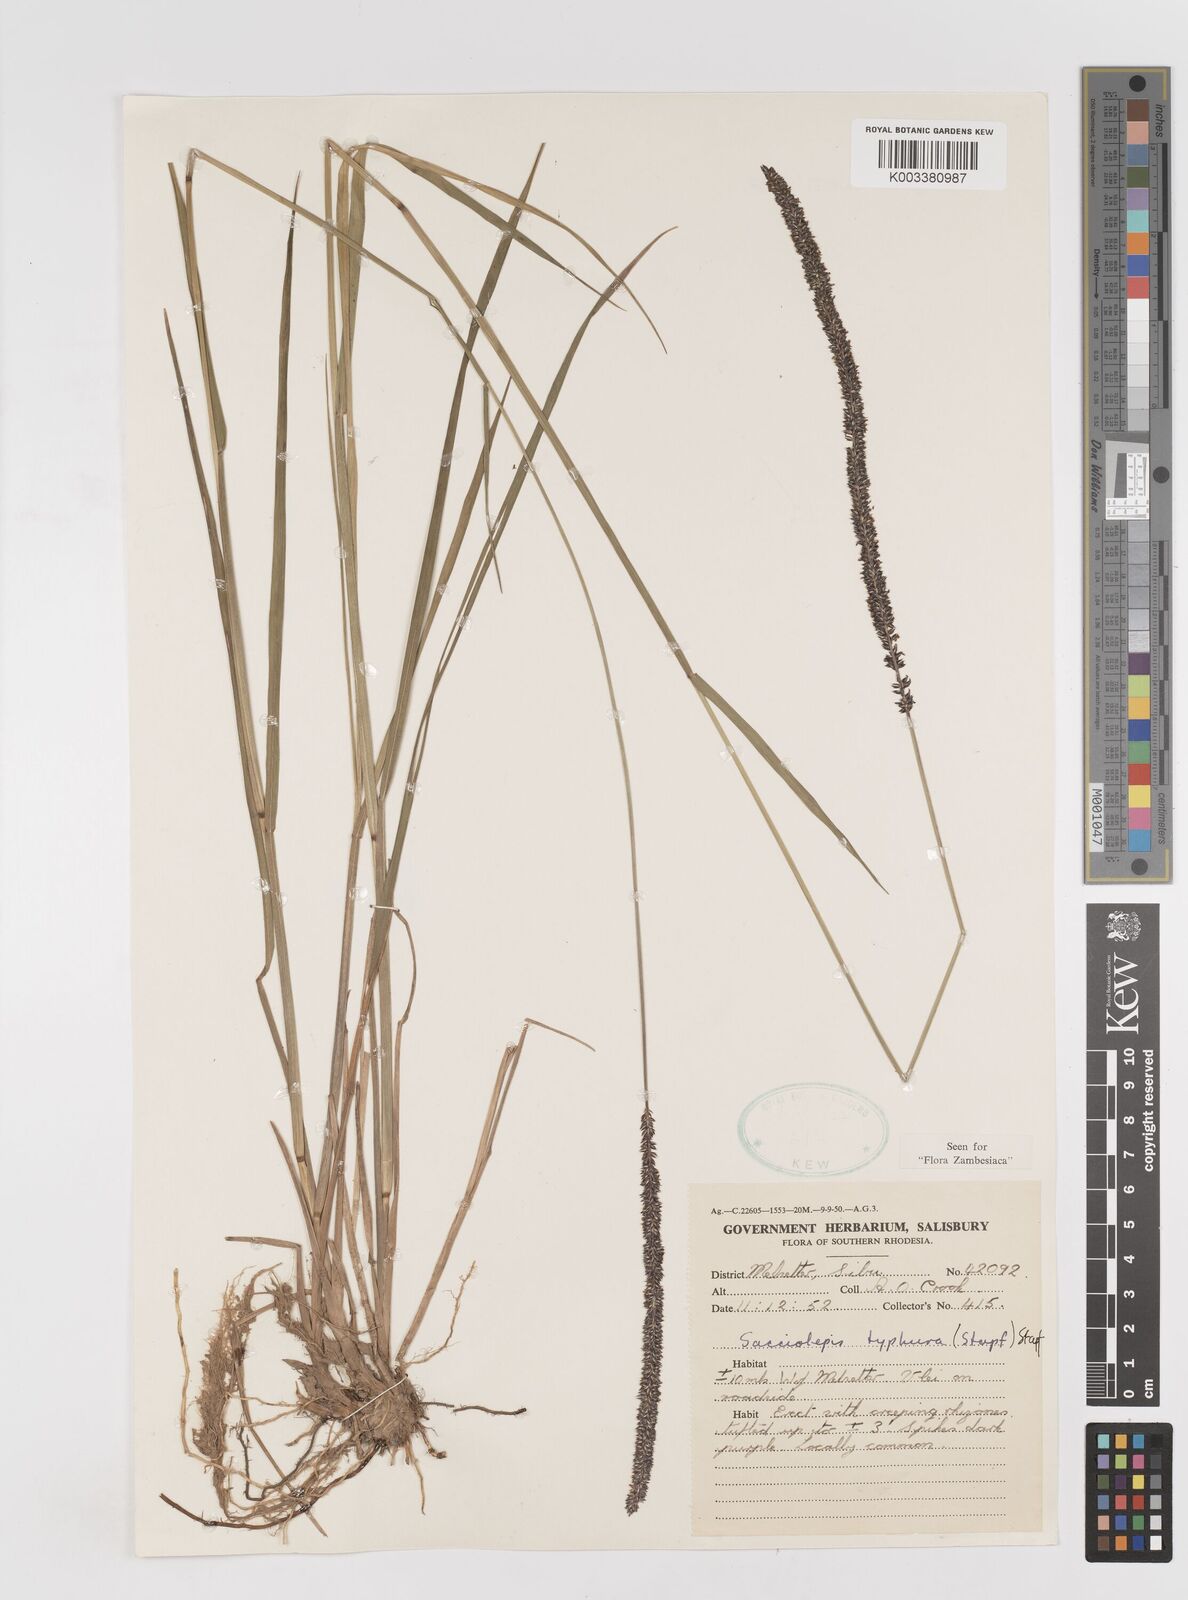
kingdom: Plantae
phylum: Tracheophyta
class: Liliopsida
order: Poales
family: Poaceae
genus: Sacciolepis
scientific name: Sacciolepis typhura
